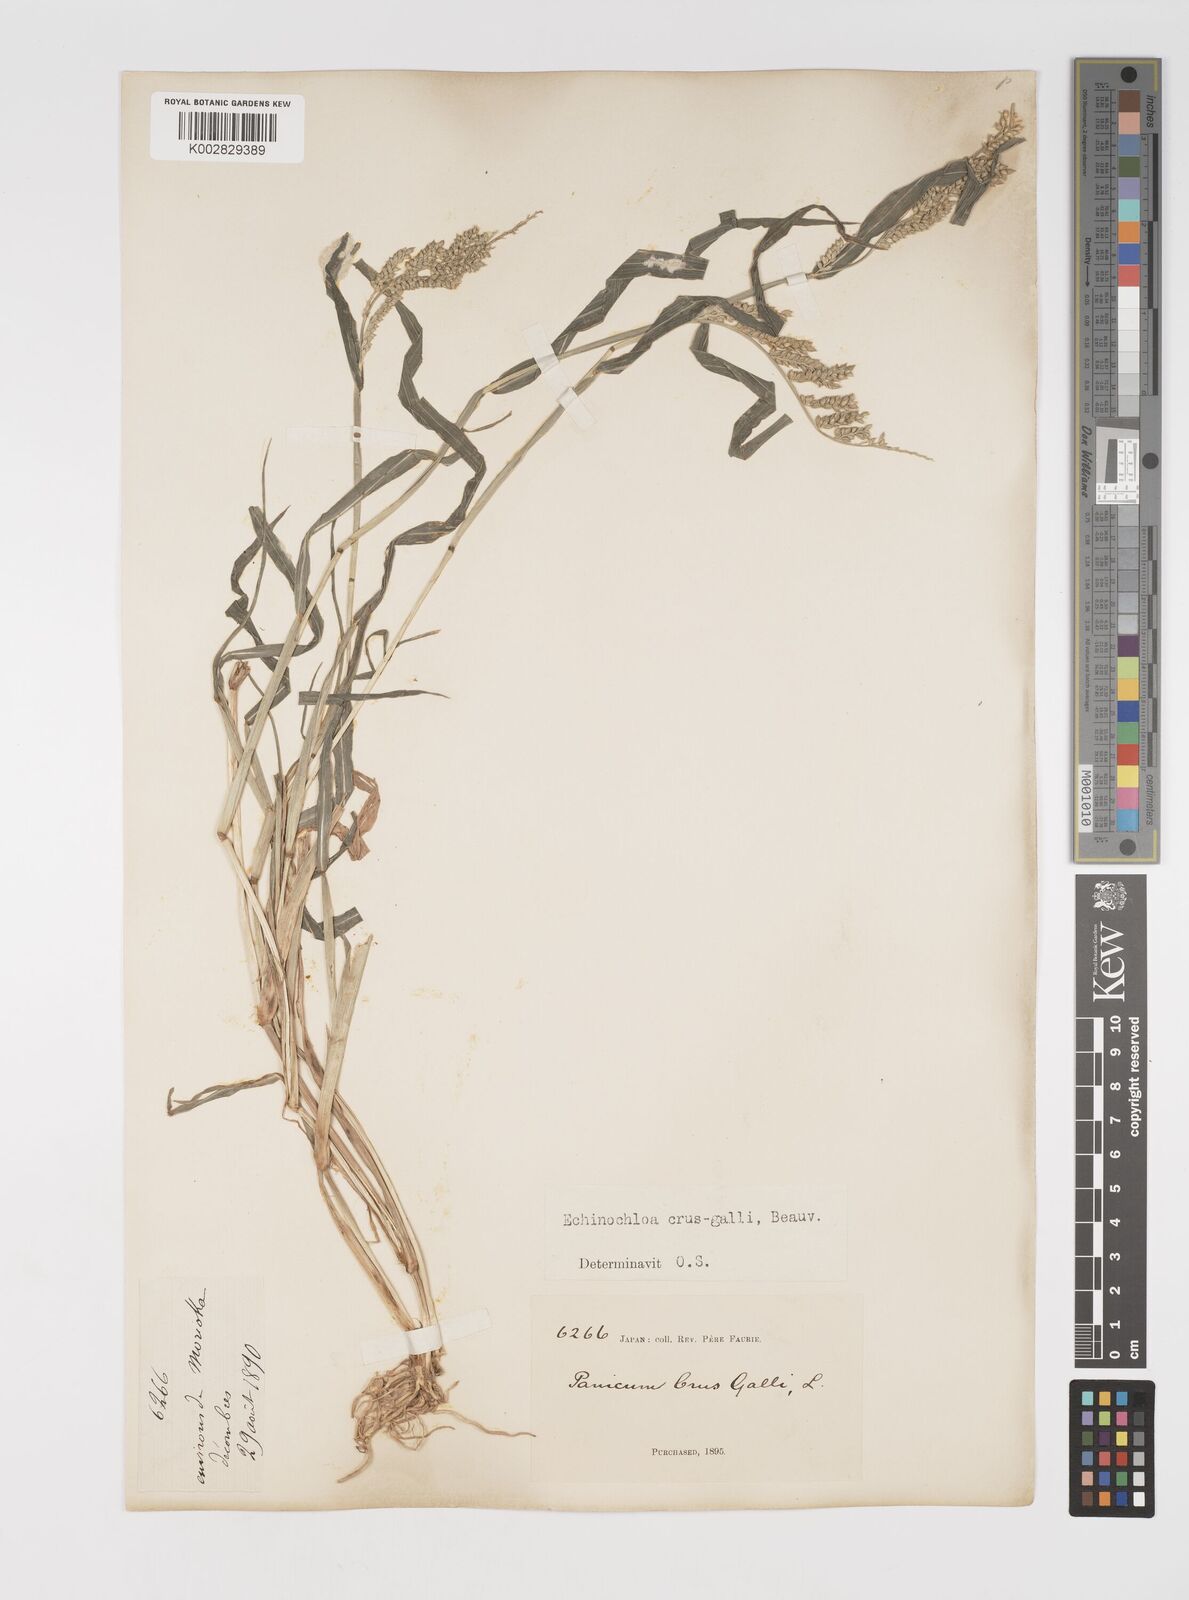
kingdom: Plantae
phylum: Tracheophyta
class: Liliopsida
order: Poales
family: Poaceae
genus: Echinochloa
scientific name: Echinochloa crus-galli
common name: Cockspur
